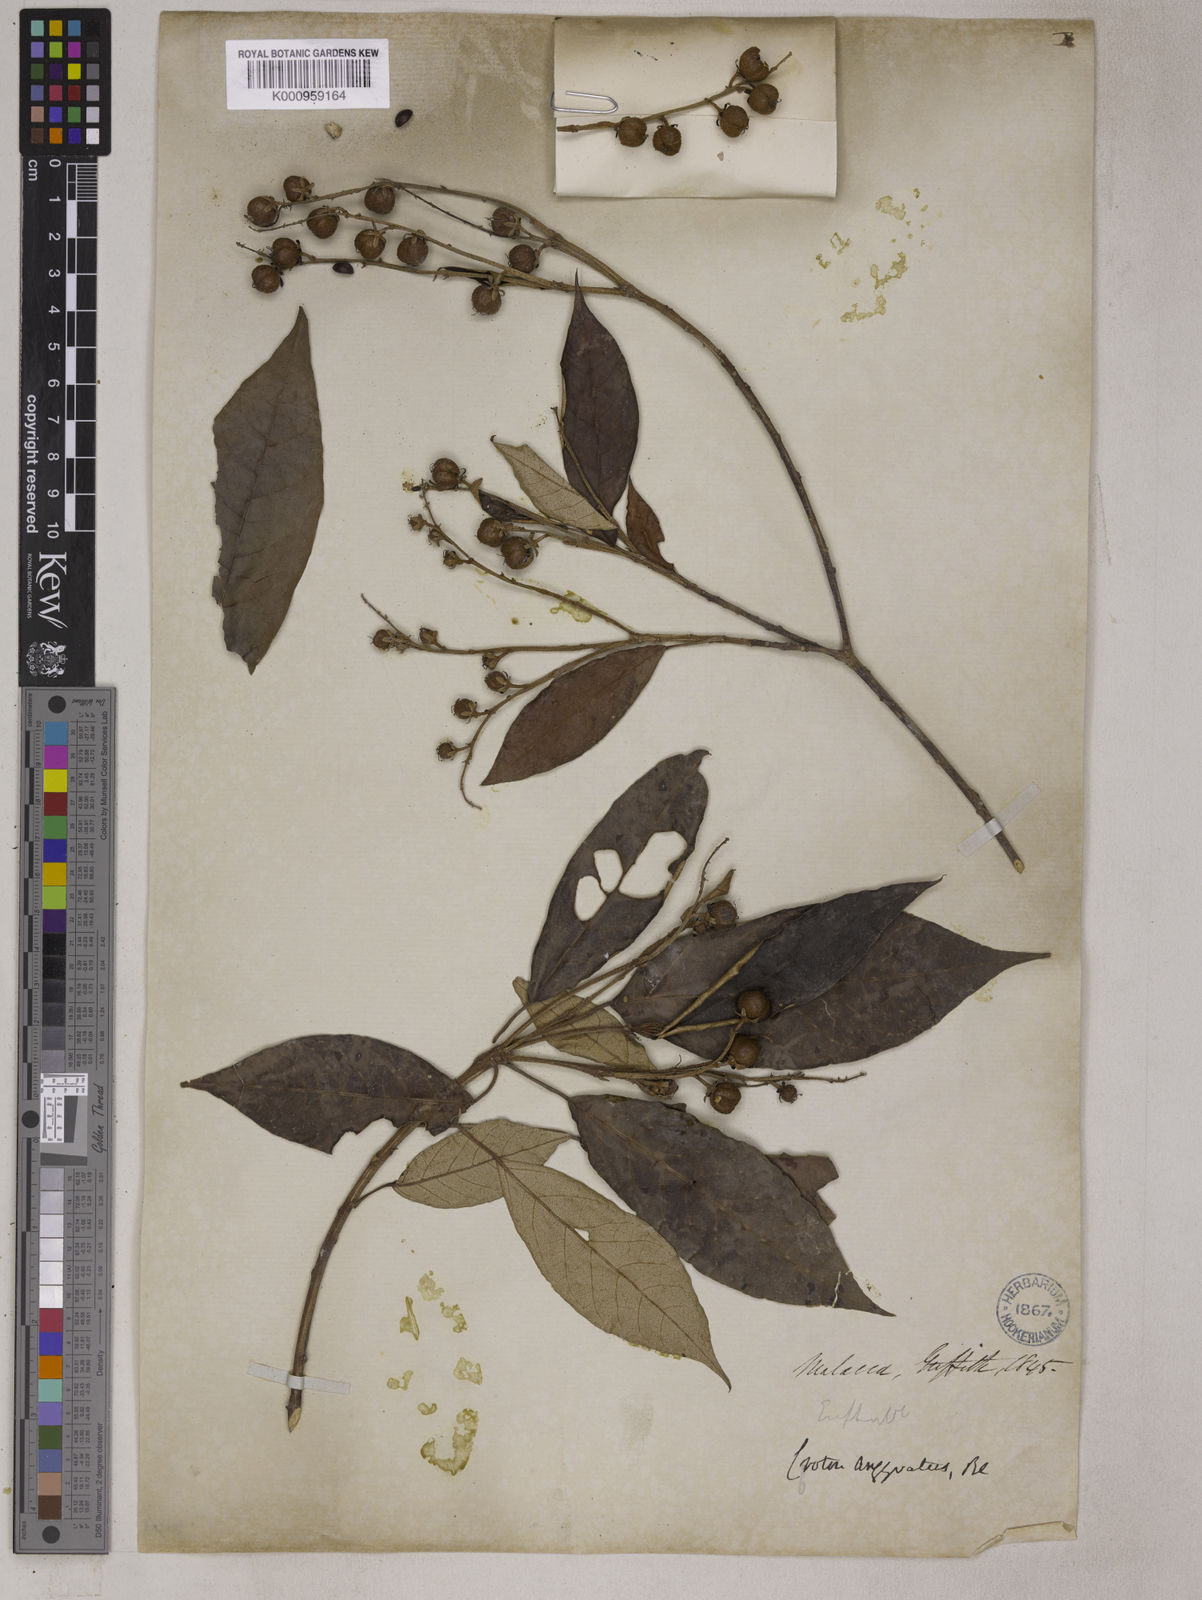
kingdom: Plantae
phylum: Tracheophyta
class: Magnoliopsida
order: Malpighiales
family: Euphorbiaceae
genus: Croton
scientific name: Croton argyratus
